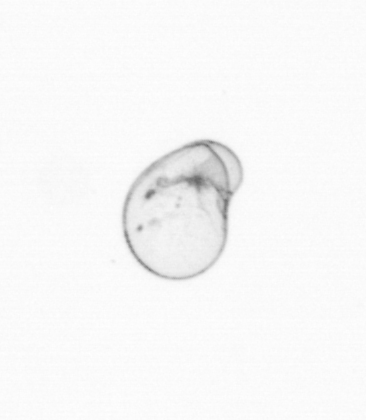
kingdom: Chromista
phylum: Myzozoa
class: Dinophyceae
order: Noctilucales
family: Noctilucaceae
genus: Noctiluca
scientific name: Noctiluca scintillans
